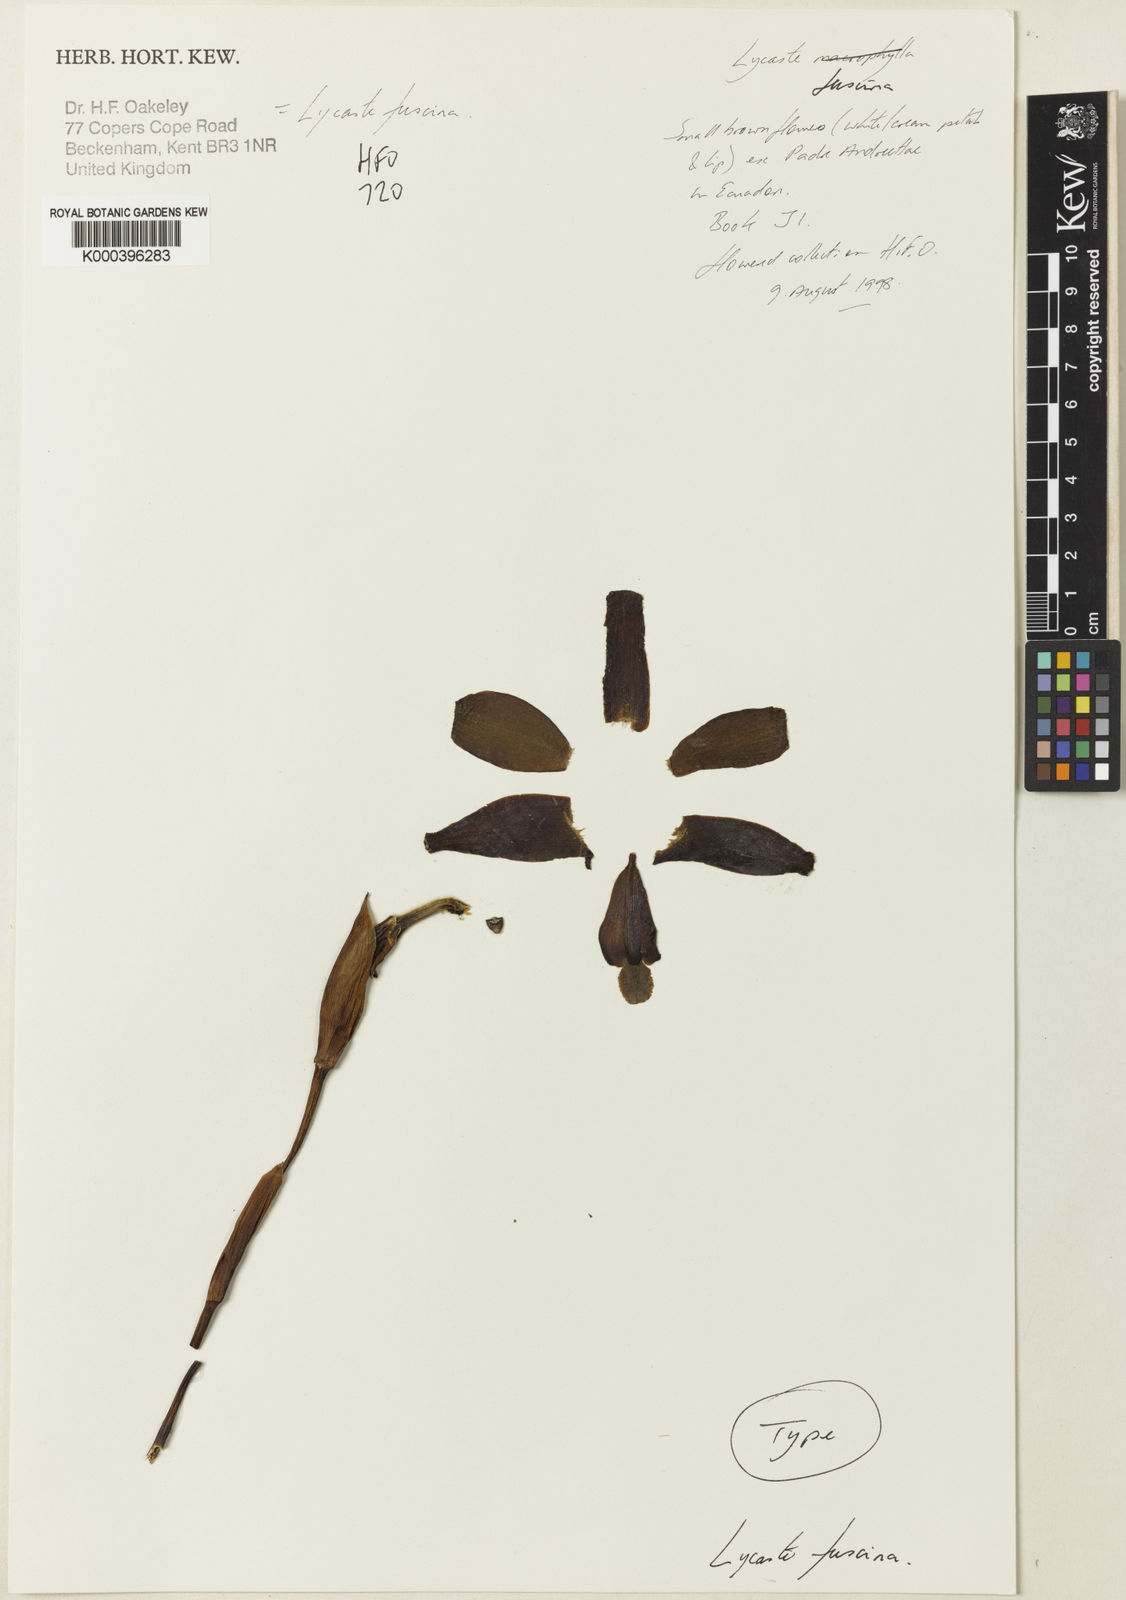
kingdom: Plantae
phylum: Tracheophyta
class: Liliopsida
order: Asparagales
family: Orchidaceae
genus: Lycaste
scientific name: Lycaste fuscina
